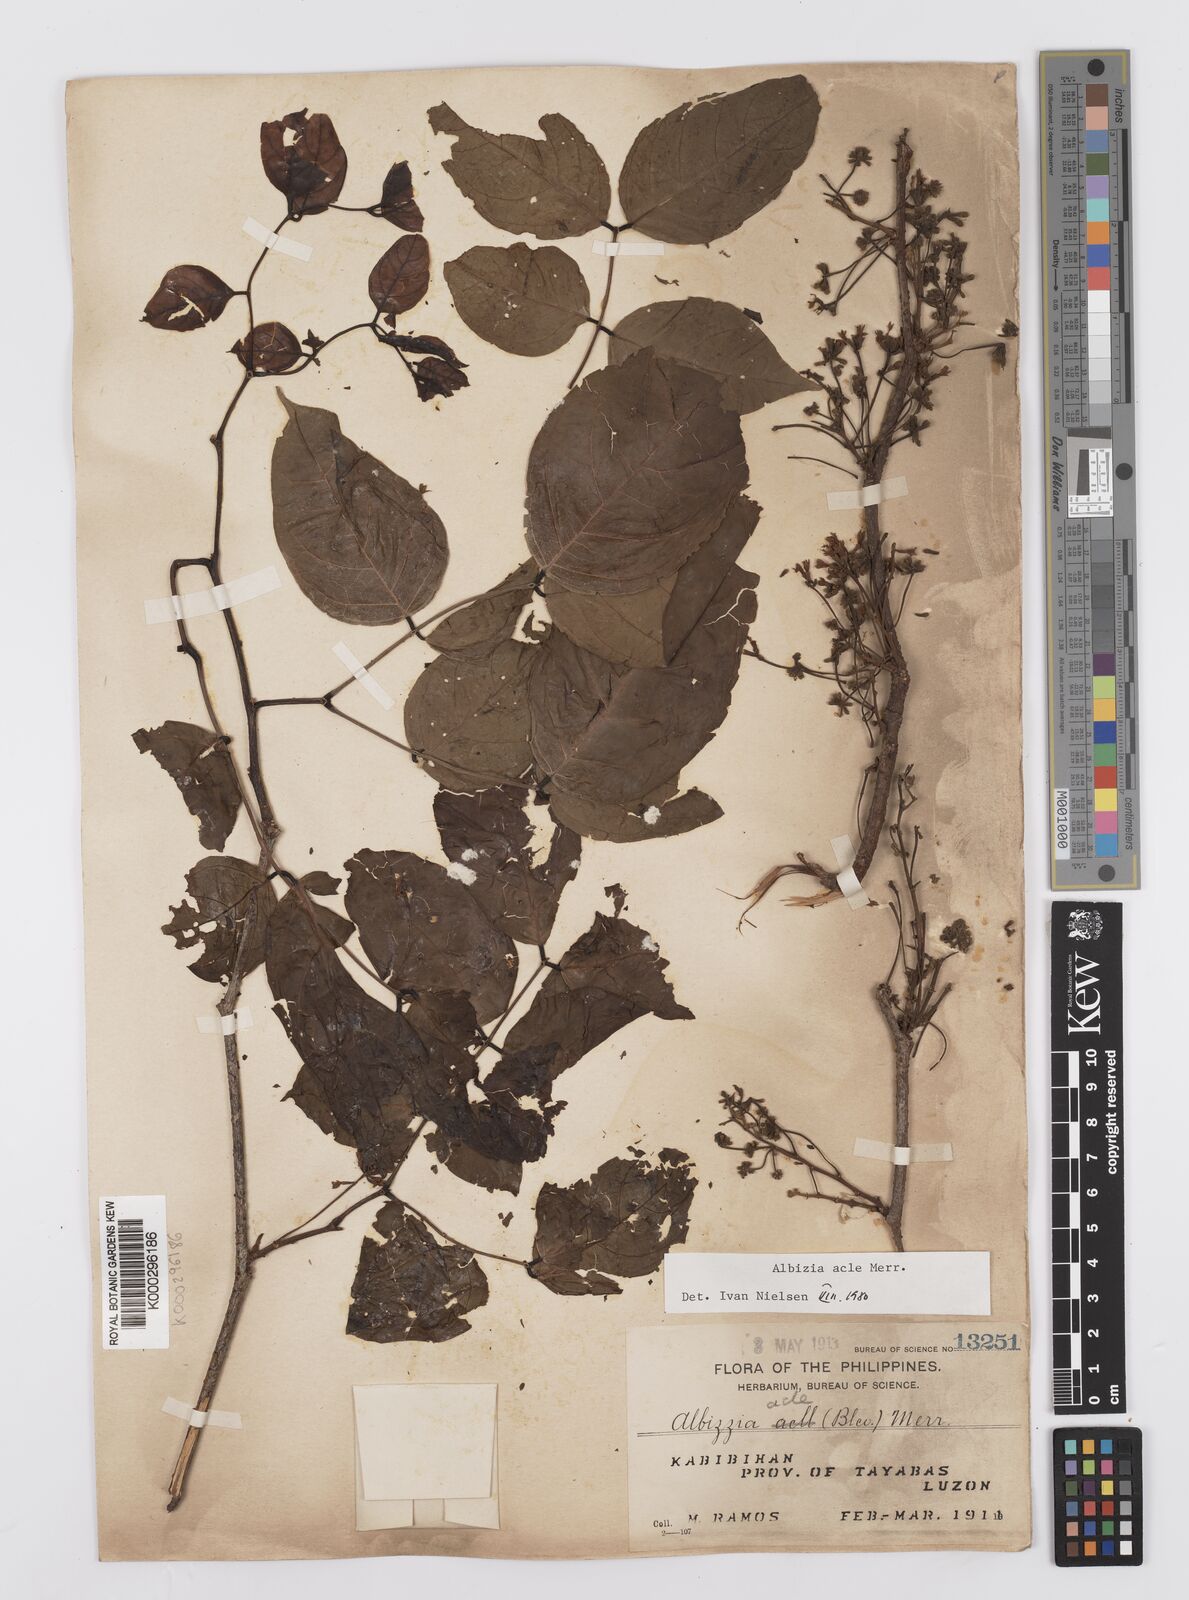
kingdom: Plantae
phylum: Tracheophyta
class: Magnoliopsida
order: Fabales
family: Fabaceae
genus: Albizia
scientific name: Albizia acle
